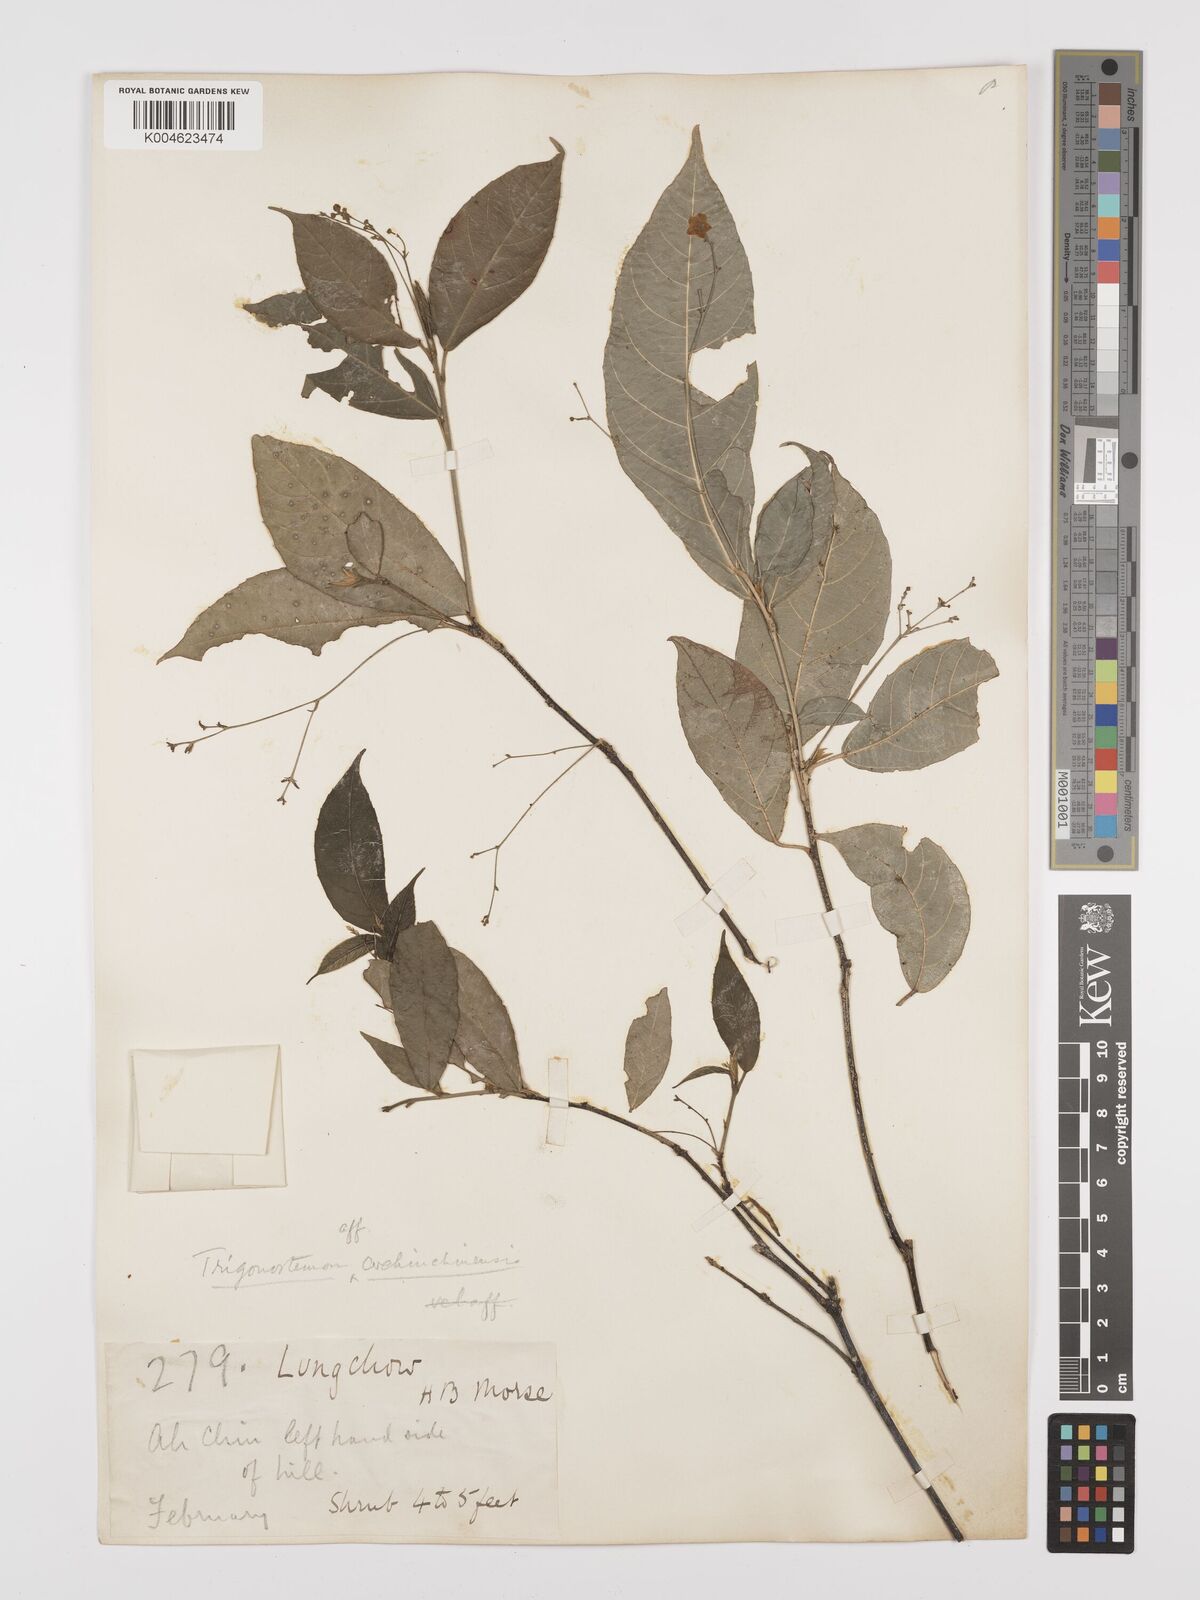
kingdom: Plantae
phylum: Tracheophyta
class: Magnoliopsida
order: Malpighiales
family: Euphorbiaceae
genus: Trigonostemon
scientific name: Trigonostemon viridissimus
